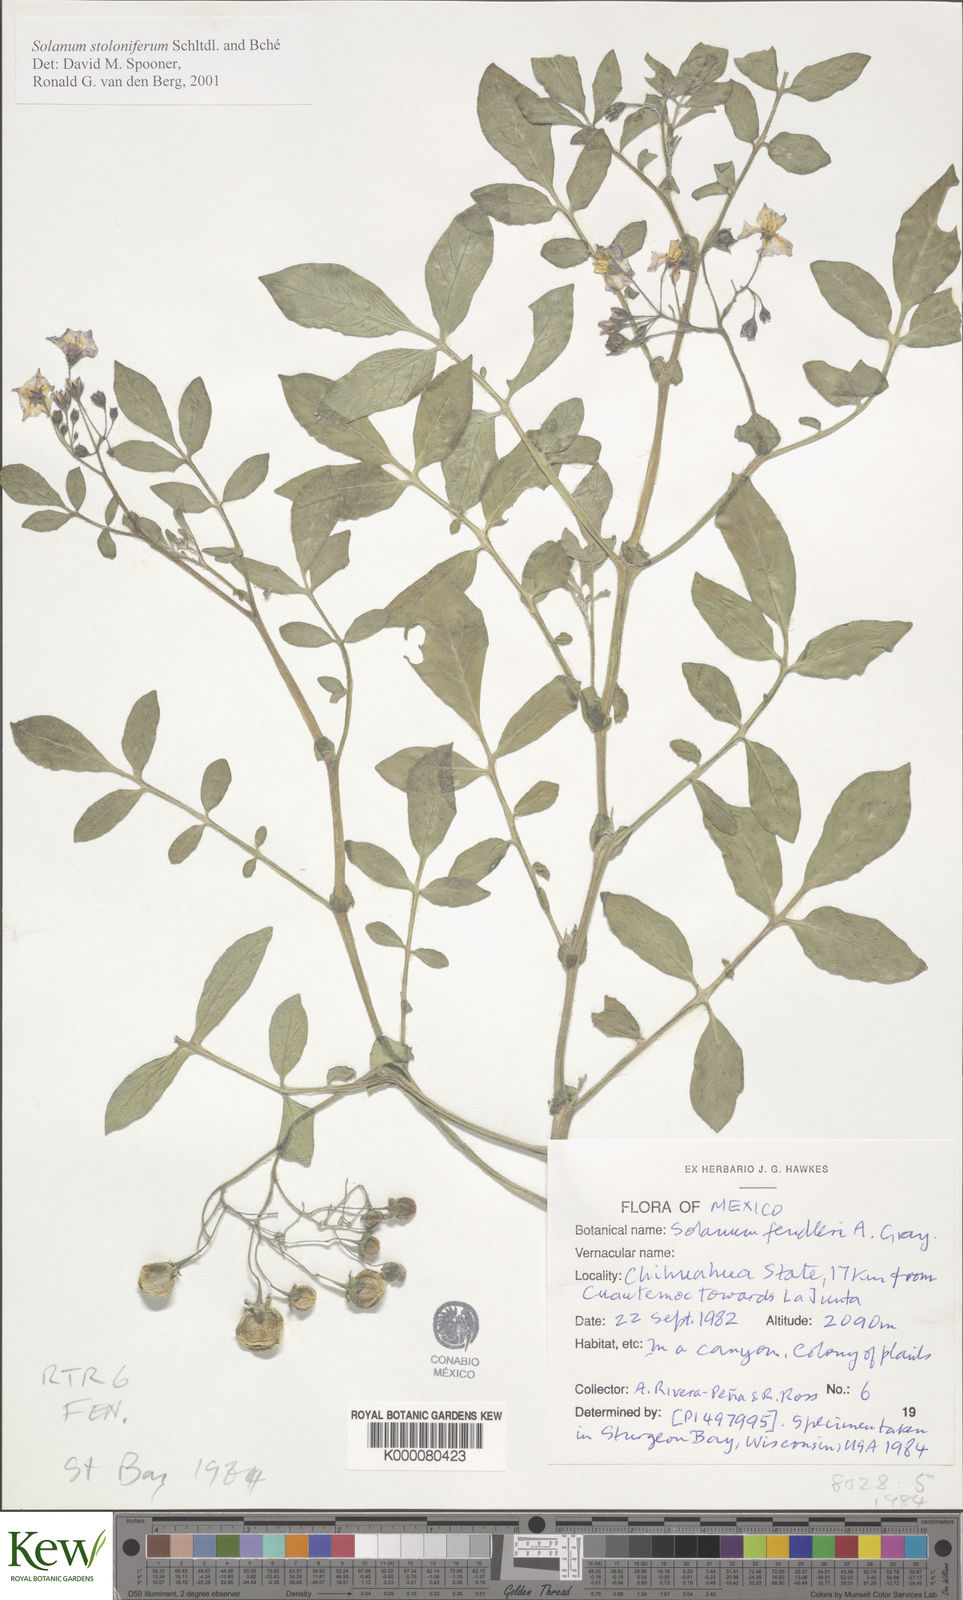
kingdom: Plantae
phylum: Tracheophyta
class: Magnoliopsida
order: Solanales
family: Solanaceae
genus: Solanum
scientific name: Solanum stoloniferum
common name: Fendler's nighshade
